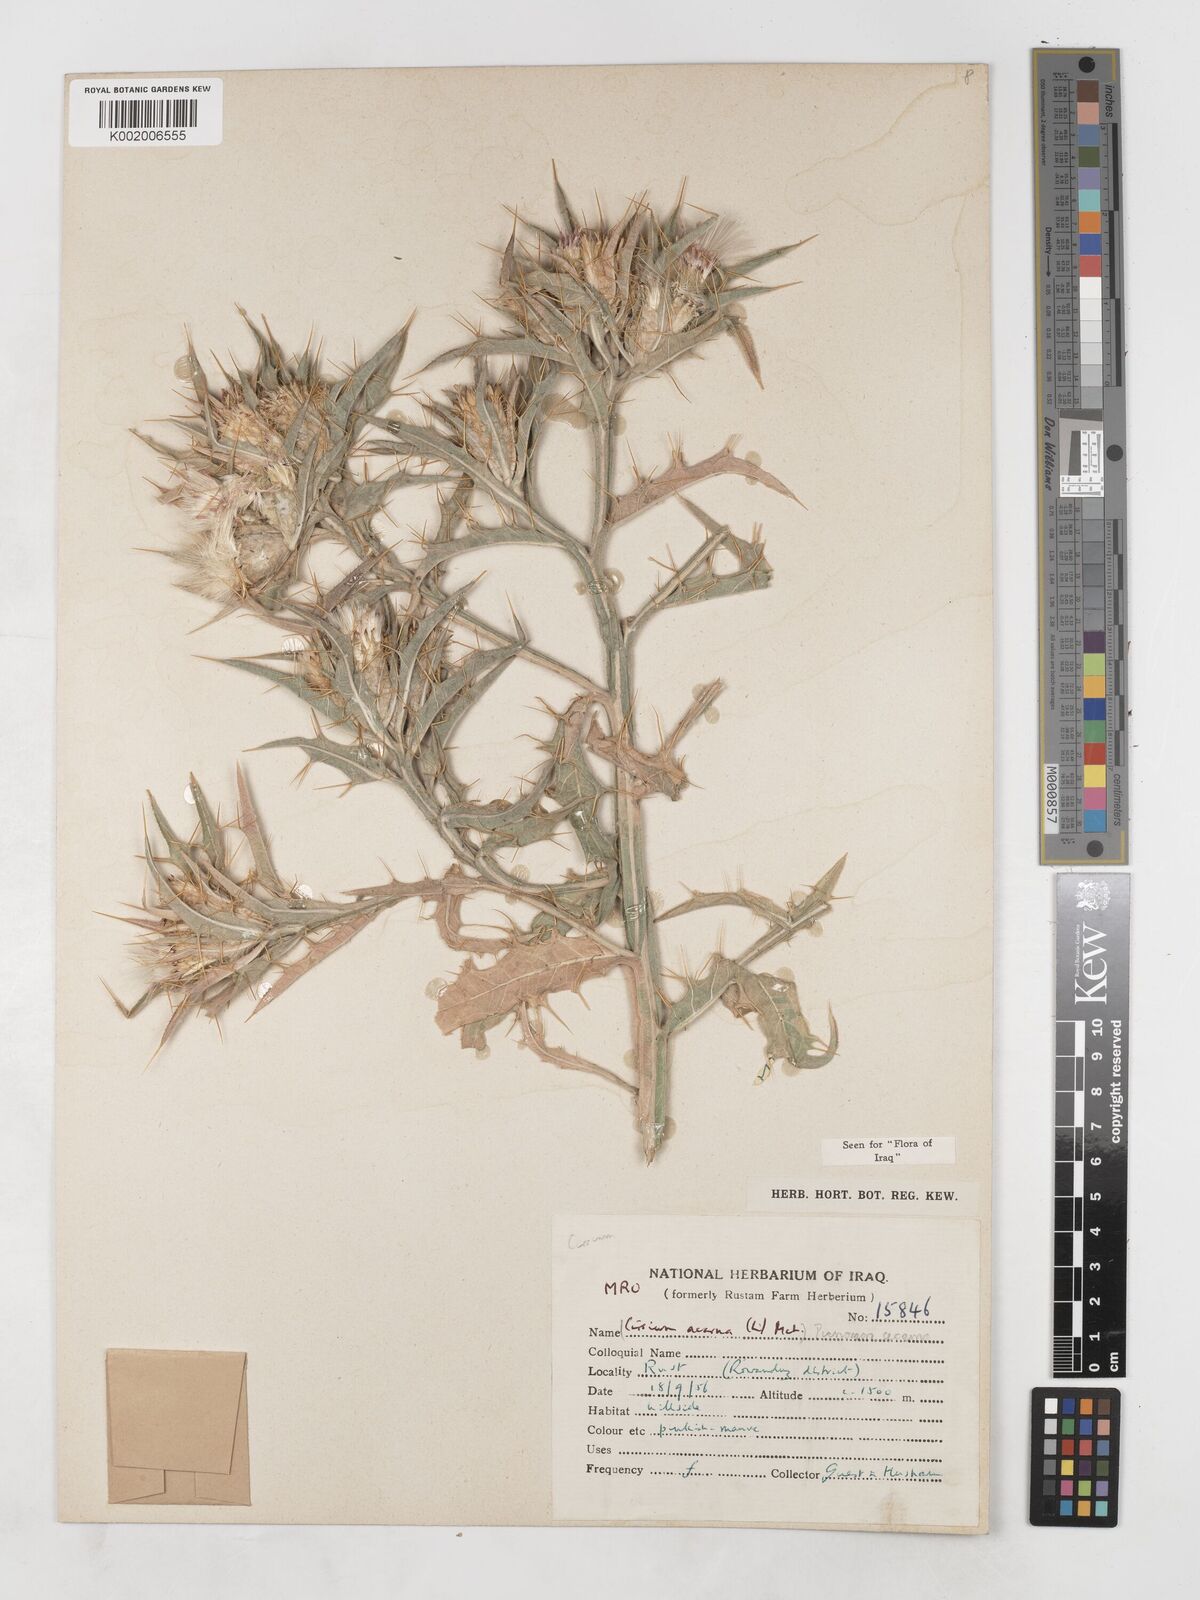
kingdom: Plantae
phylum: Tracheophyta
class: Magnoliopsida
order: Asterales
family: Asteraceae
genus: Picnomon
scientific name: Picnomon acarna
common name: Soldier thistle
